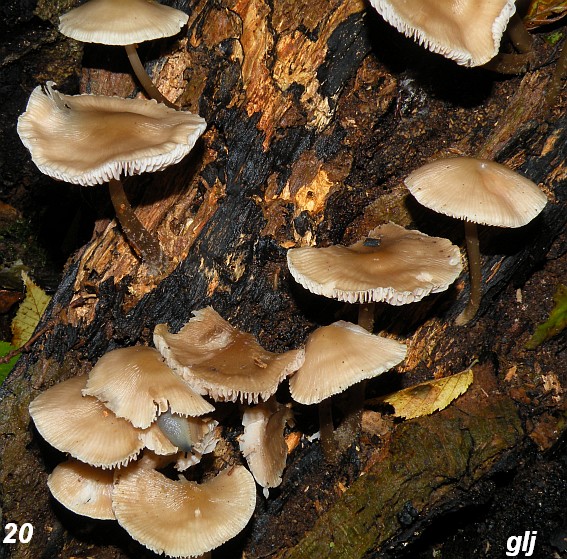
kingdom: Fungi
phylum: Basidiomycota
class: Agaricomycetes
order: Agaricales
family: Mycenaceae
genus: Mycena
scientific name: Mycena galericulata
